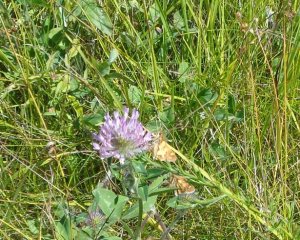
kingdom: Animalia
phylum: Arthropoda
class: Insecta
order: Lepidoptera
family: Hesperiidae
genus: Polites
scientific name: Polites coras
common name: Peck's Skipper
